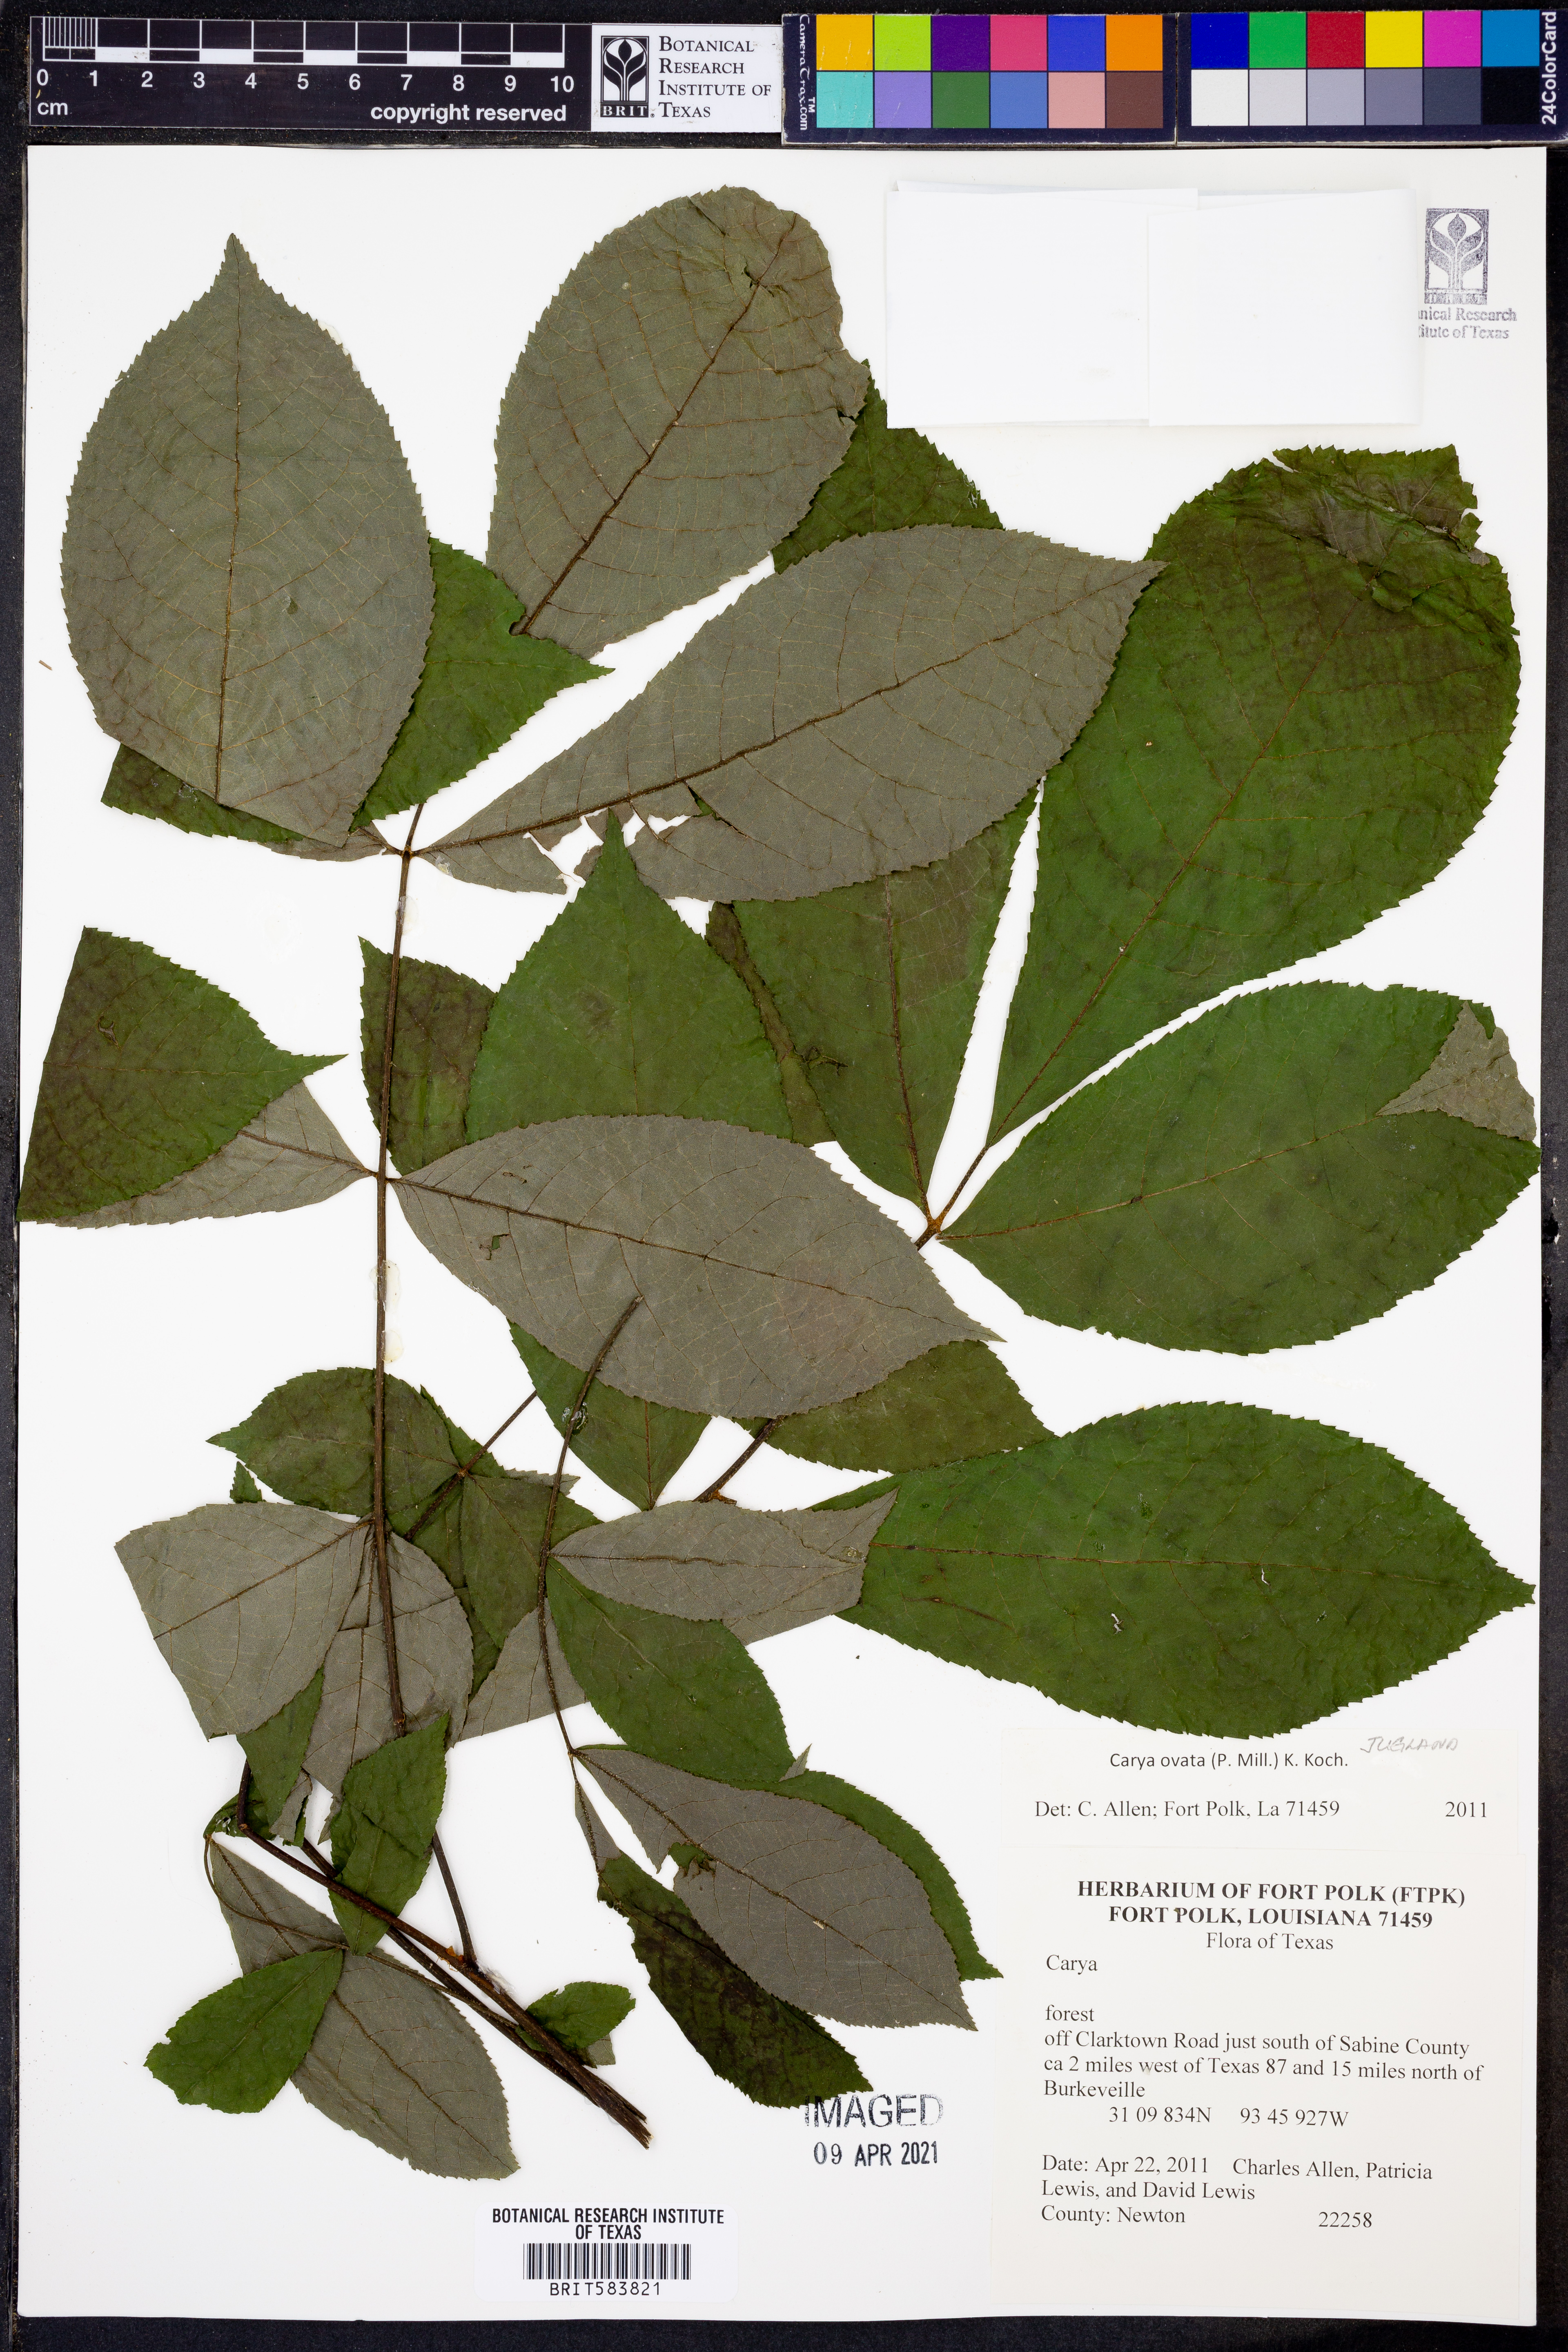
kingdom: Plantae
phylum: Tracheophyta
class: Magnoliopsida
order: Fagales
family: Juglandaceae
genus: Carya
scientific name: Carya ovata
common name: Shagbark hickory
